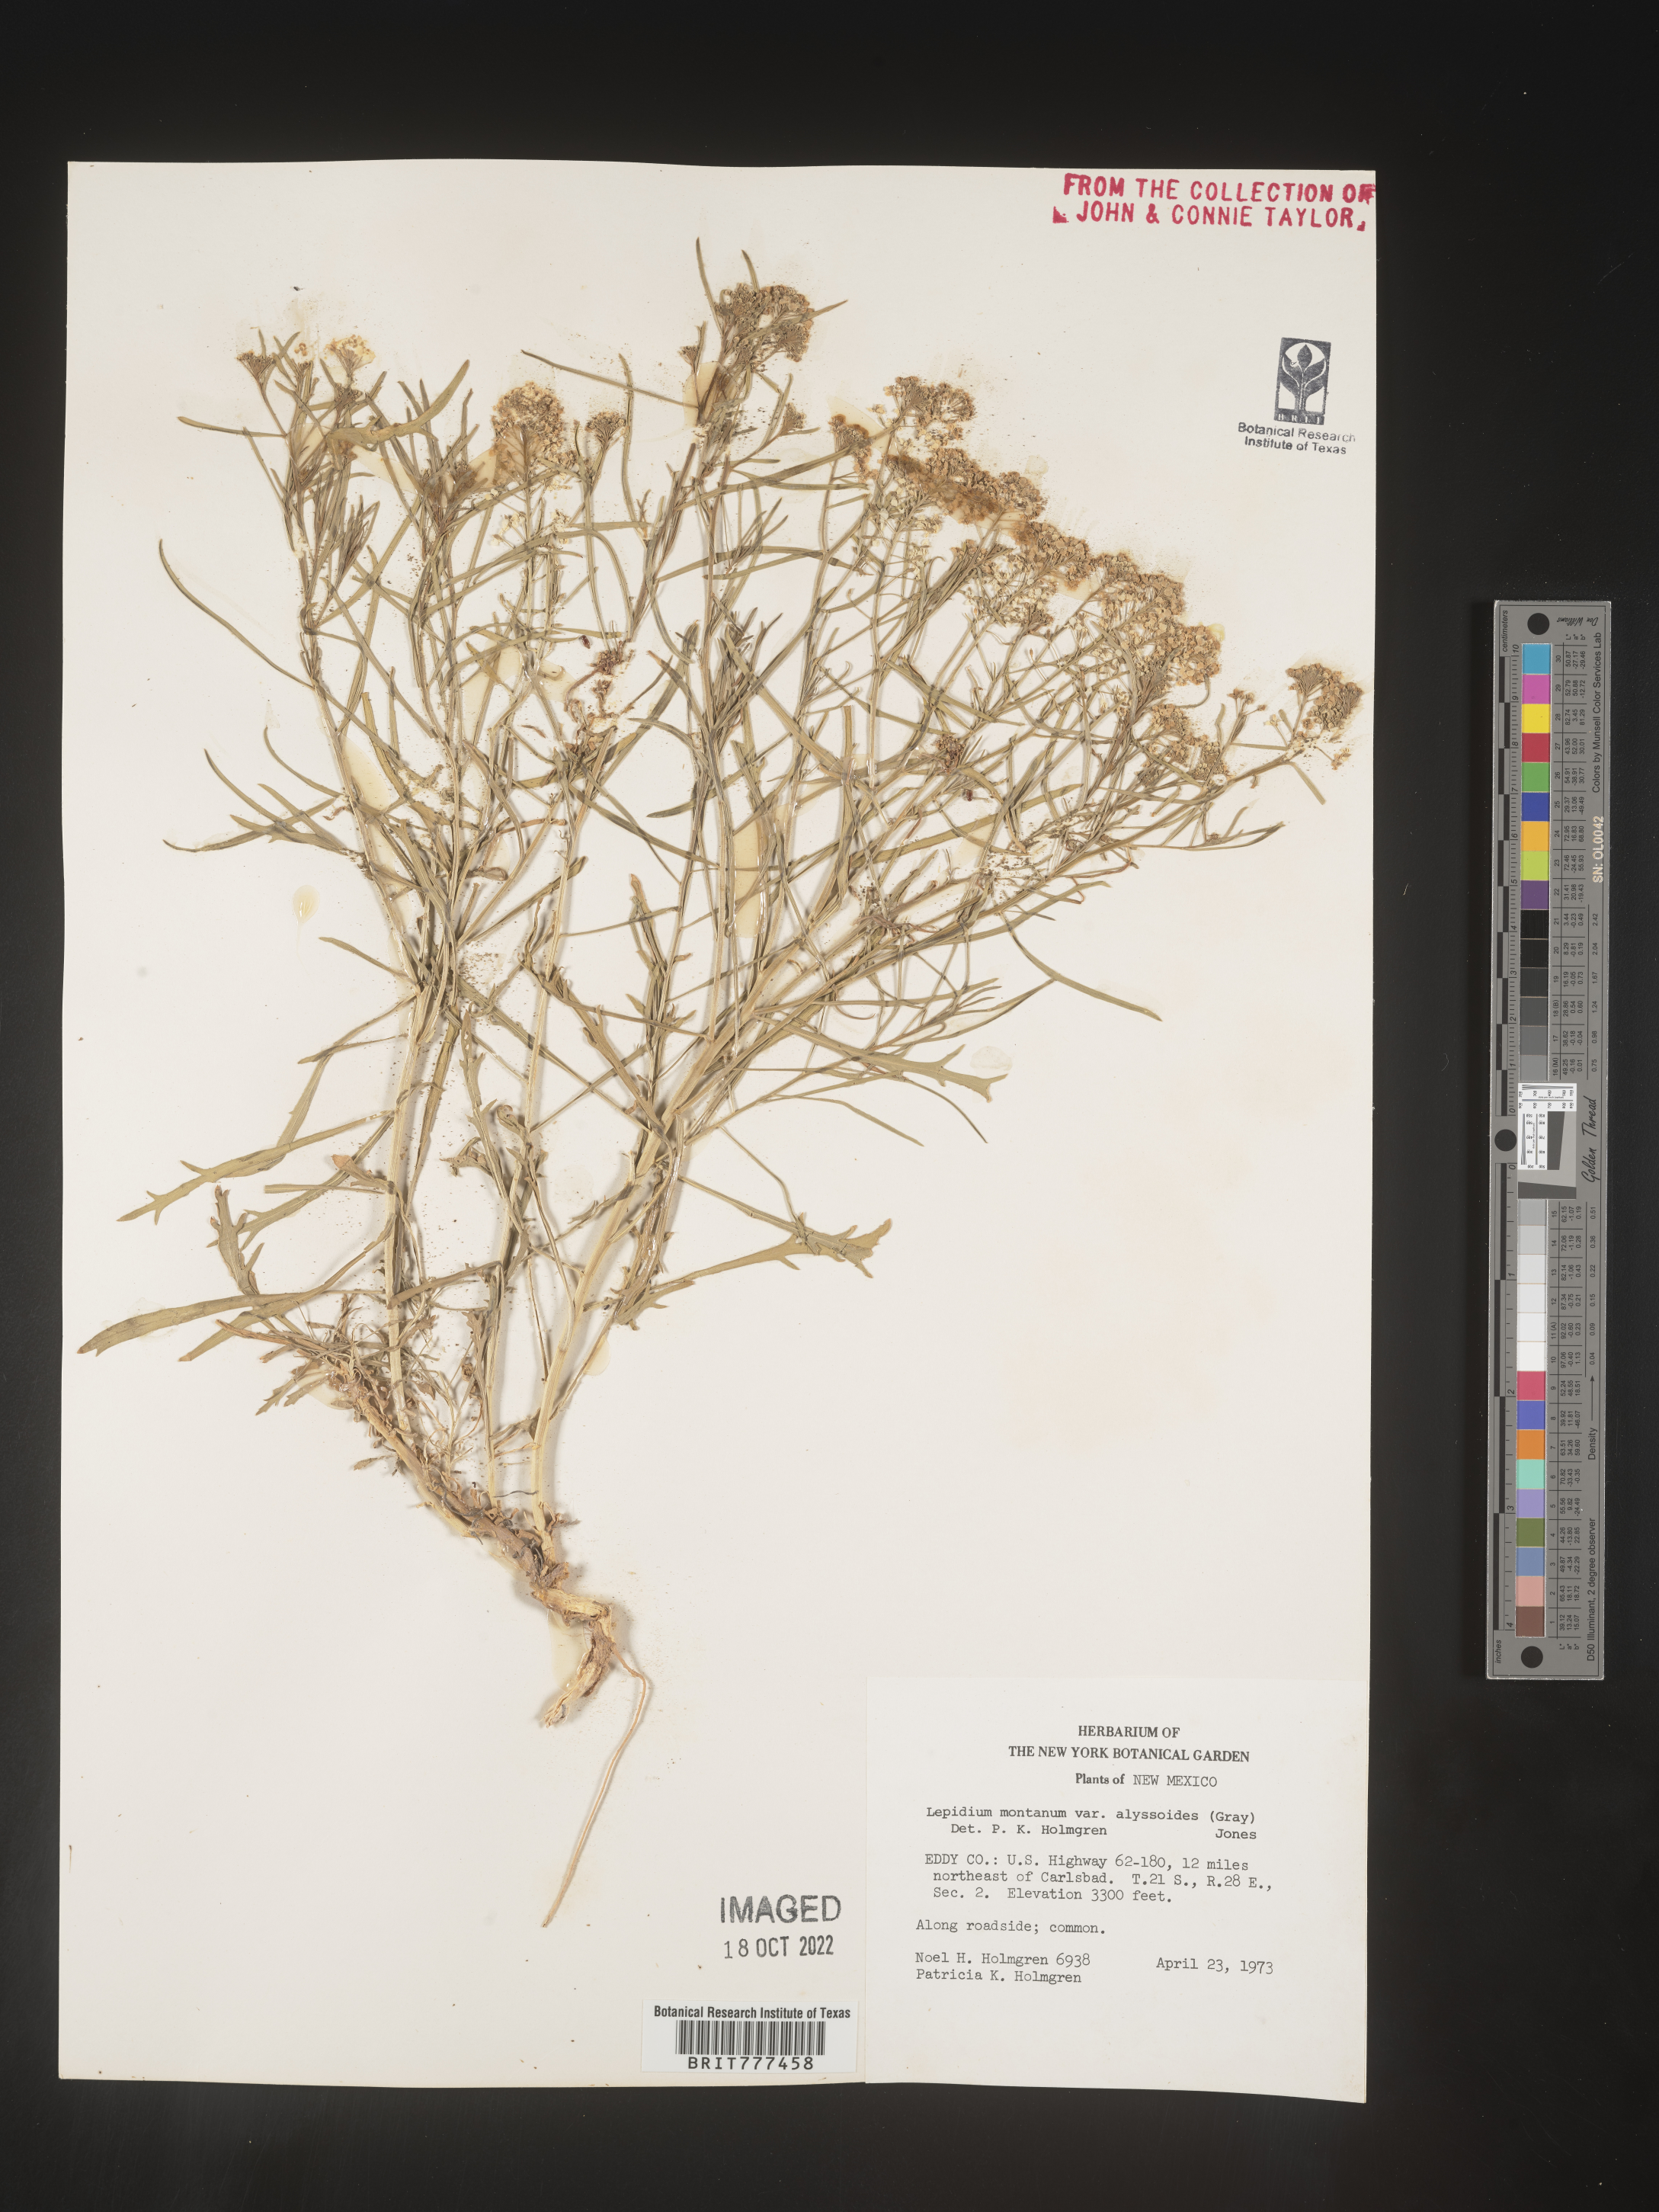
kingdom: Plantae
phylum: Tracheophyta
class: Magnoliopsida
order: Brassicales
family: Brassicaceae
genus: Lepidium
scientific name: Lepidium montanum
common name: Mountain pepperplant
